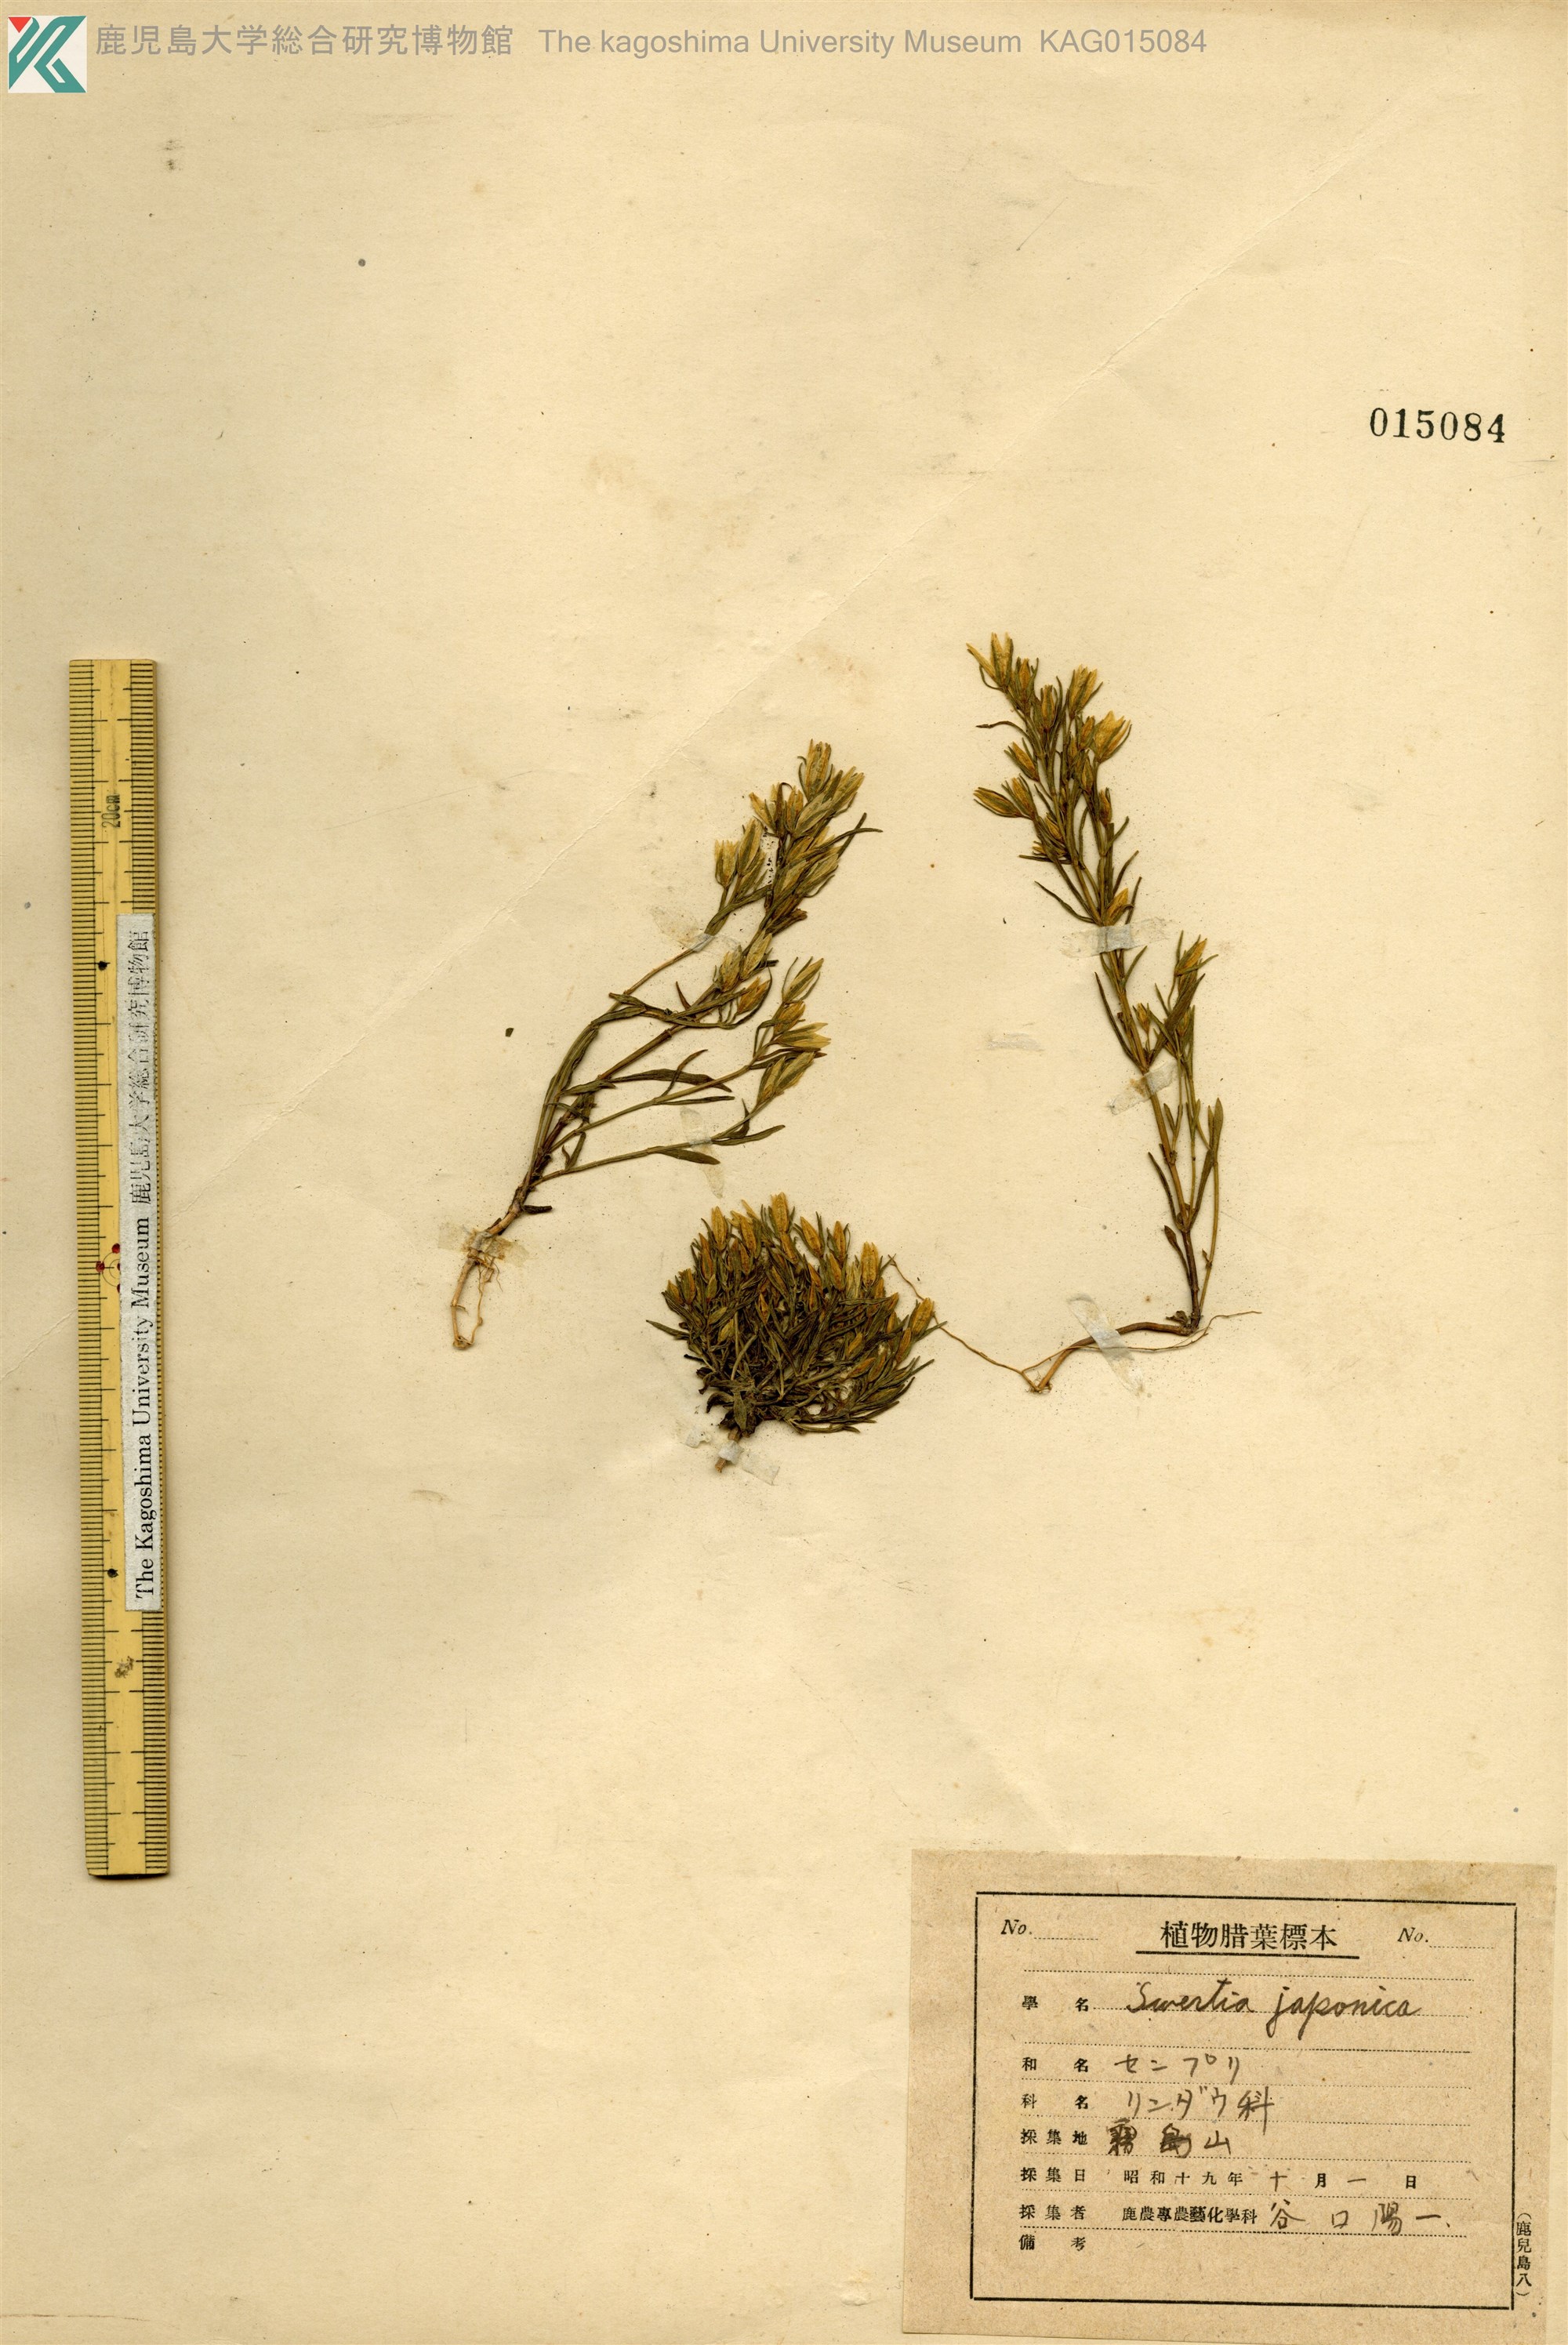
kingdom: Plantae
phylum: Tracheophyta
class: Magnoliopsida
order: Gentianales
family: Gentianaceae
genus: Swertia
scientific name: Swertia japonica
